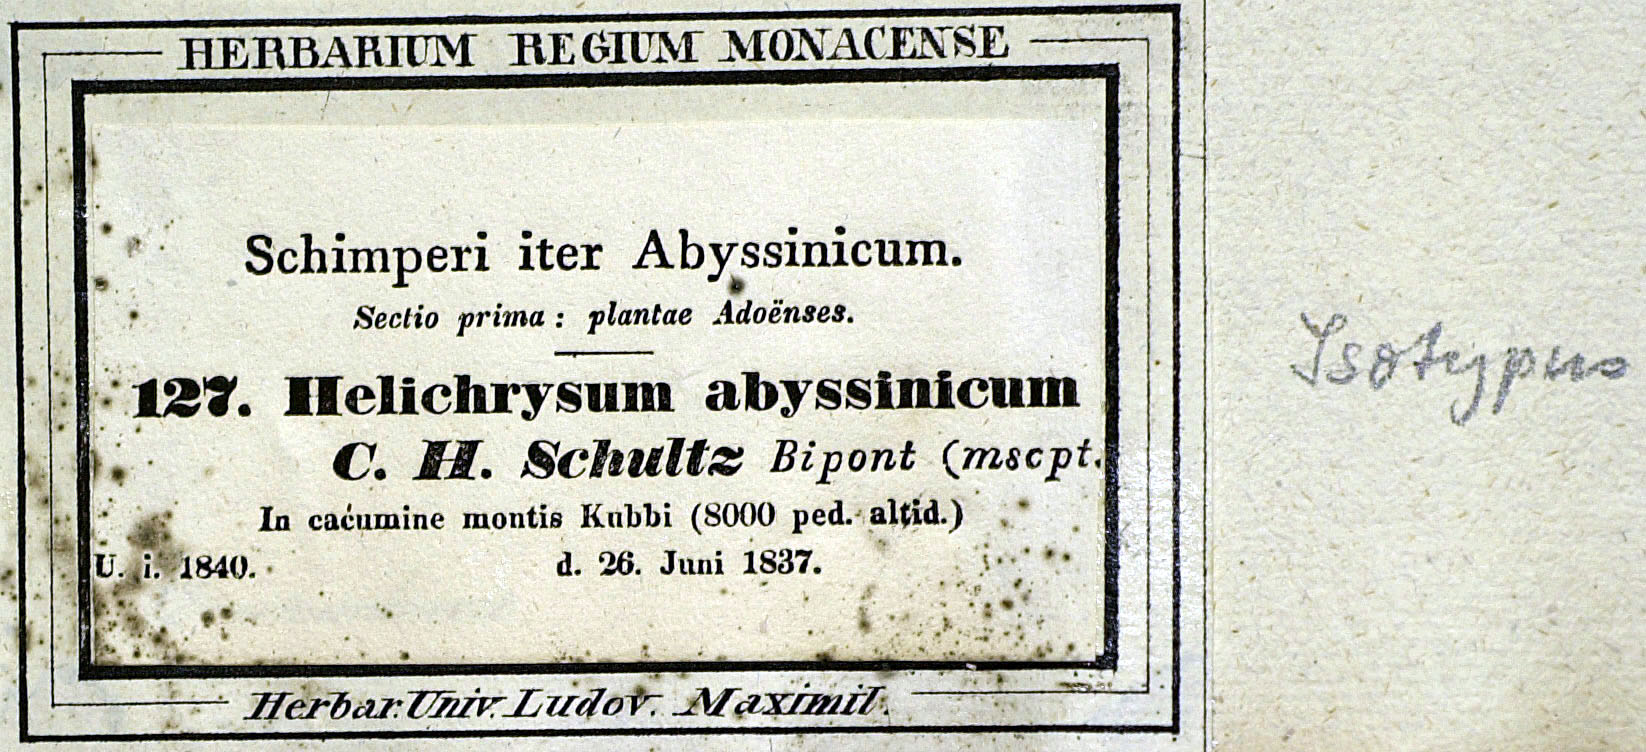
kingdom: Plantae
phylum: Tracheophyta
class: Magnoliopsida
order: Asterales
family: Asteraceae
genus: Helichrysum
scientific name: Helichrysum splendidum
